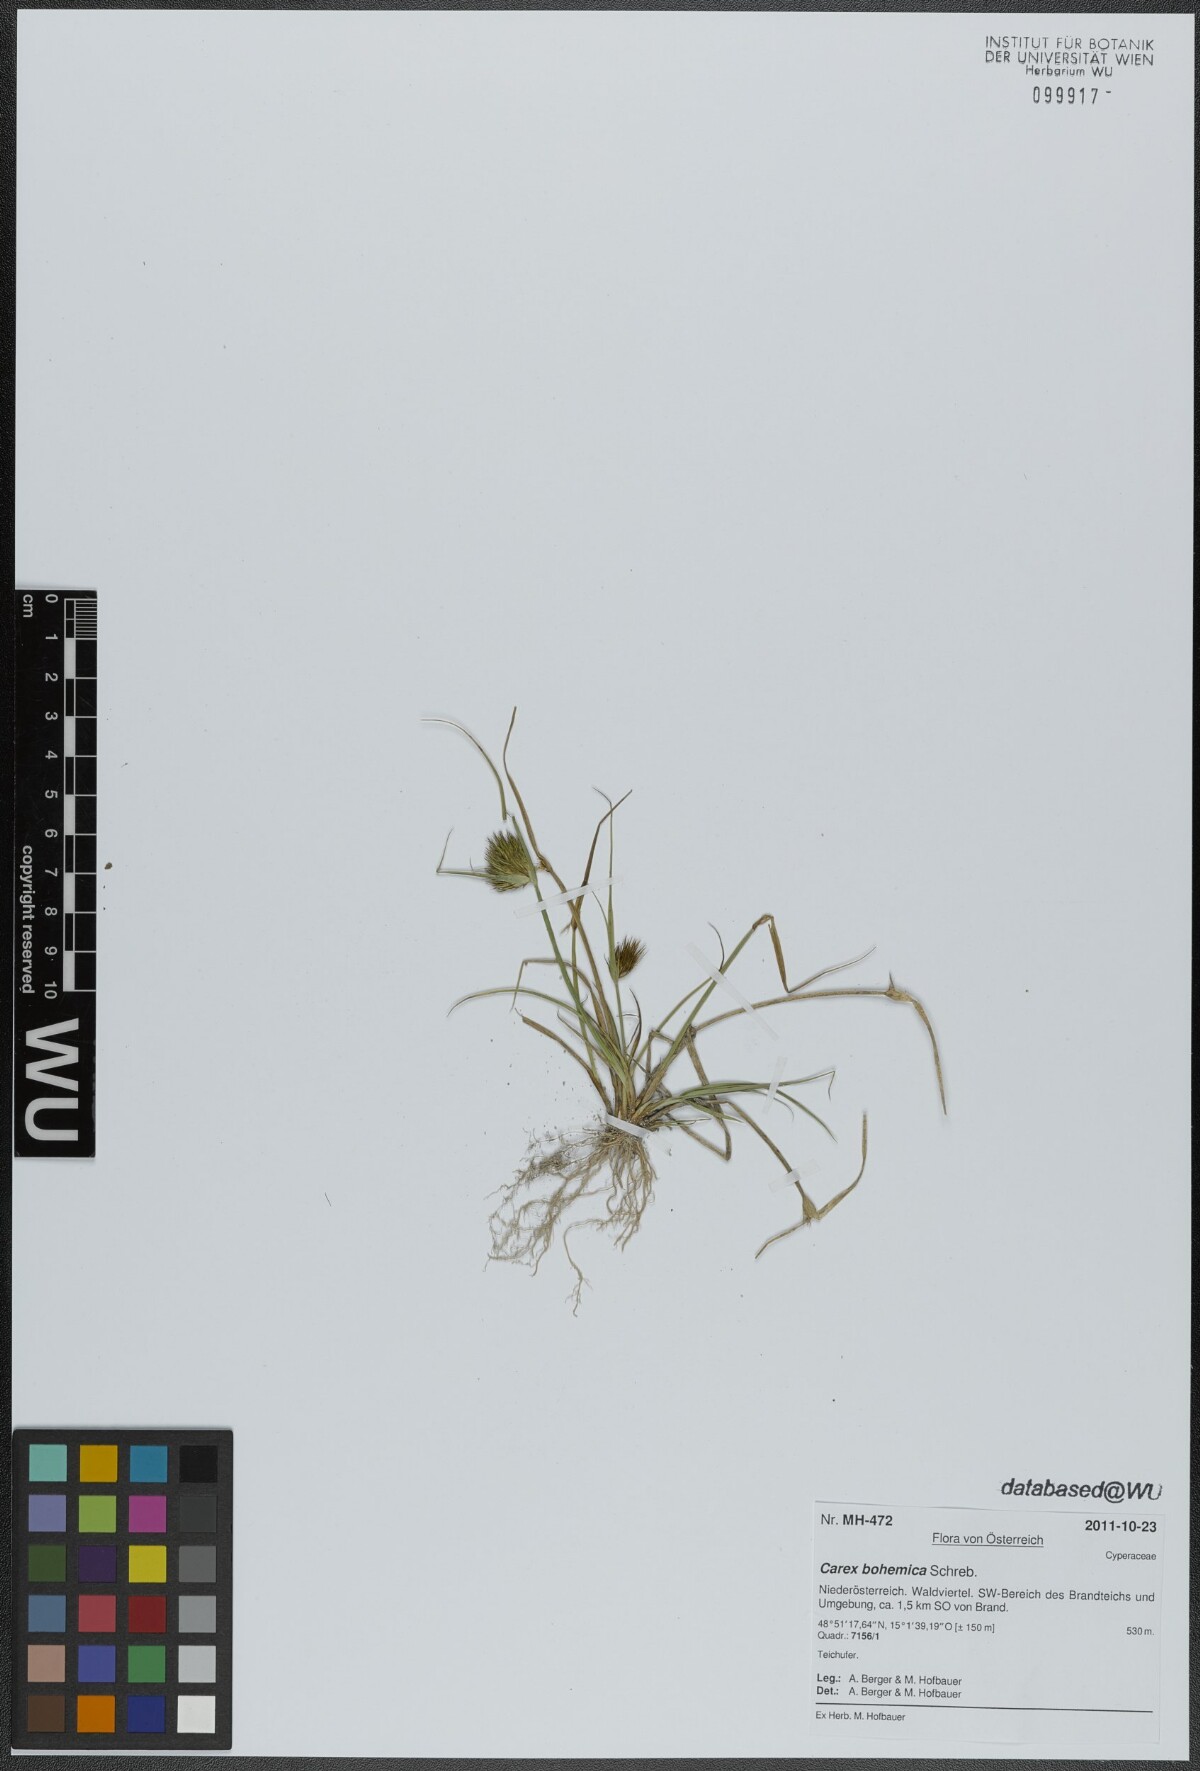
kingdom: Plantae
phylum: Tracheophyta
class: Liliopsida
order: Poales
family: Cyperaceae
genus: Carex
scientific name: Carex bohemica
